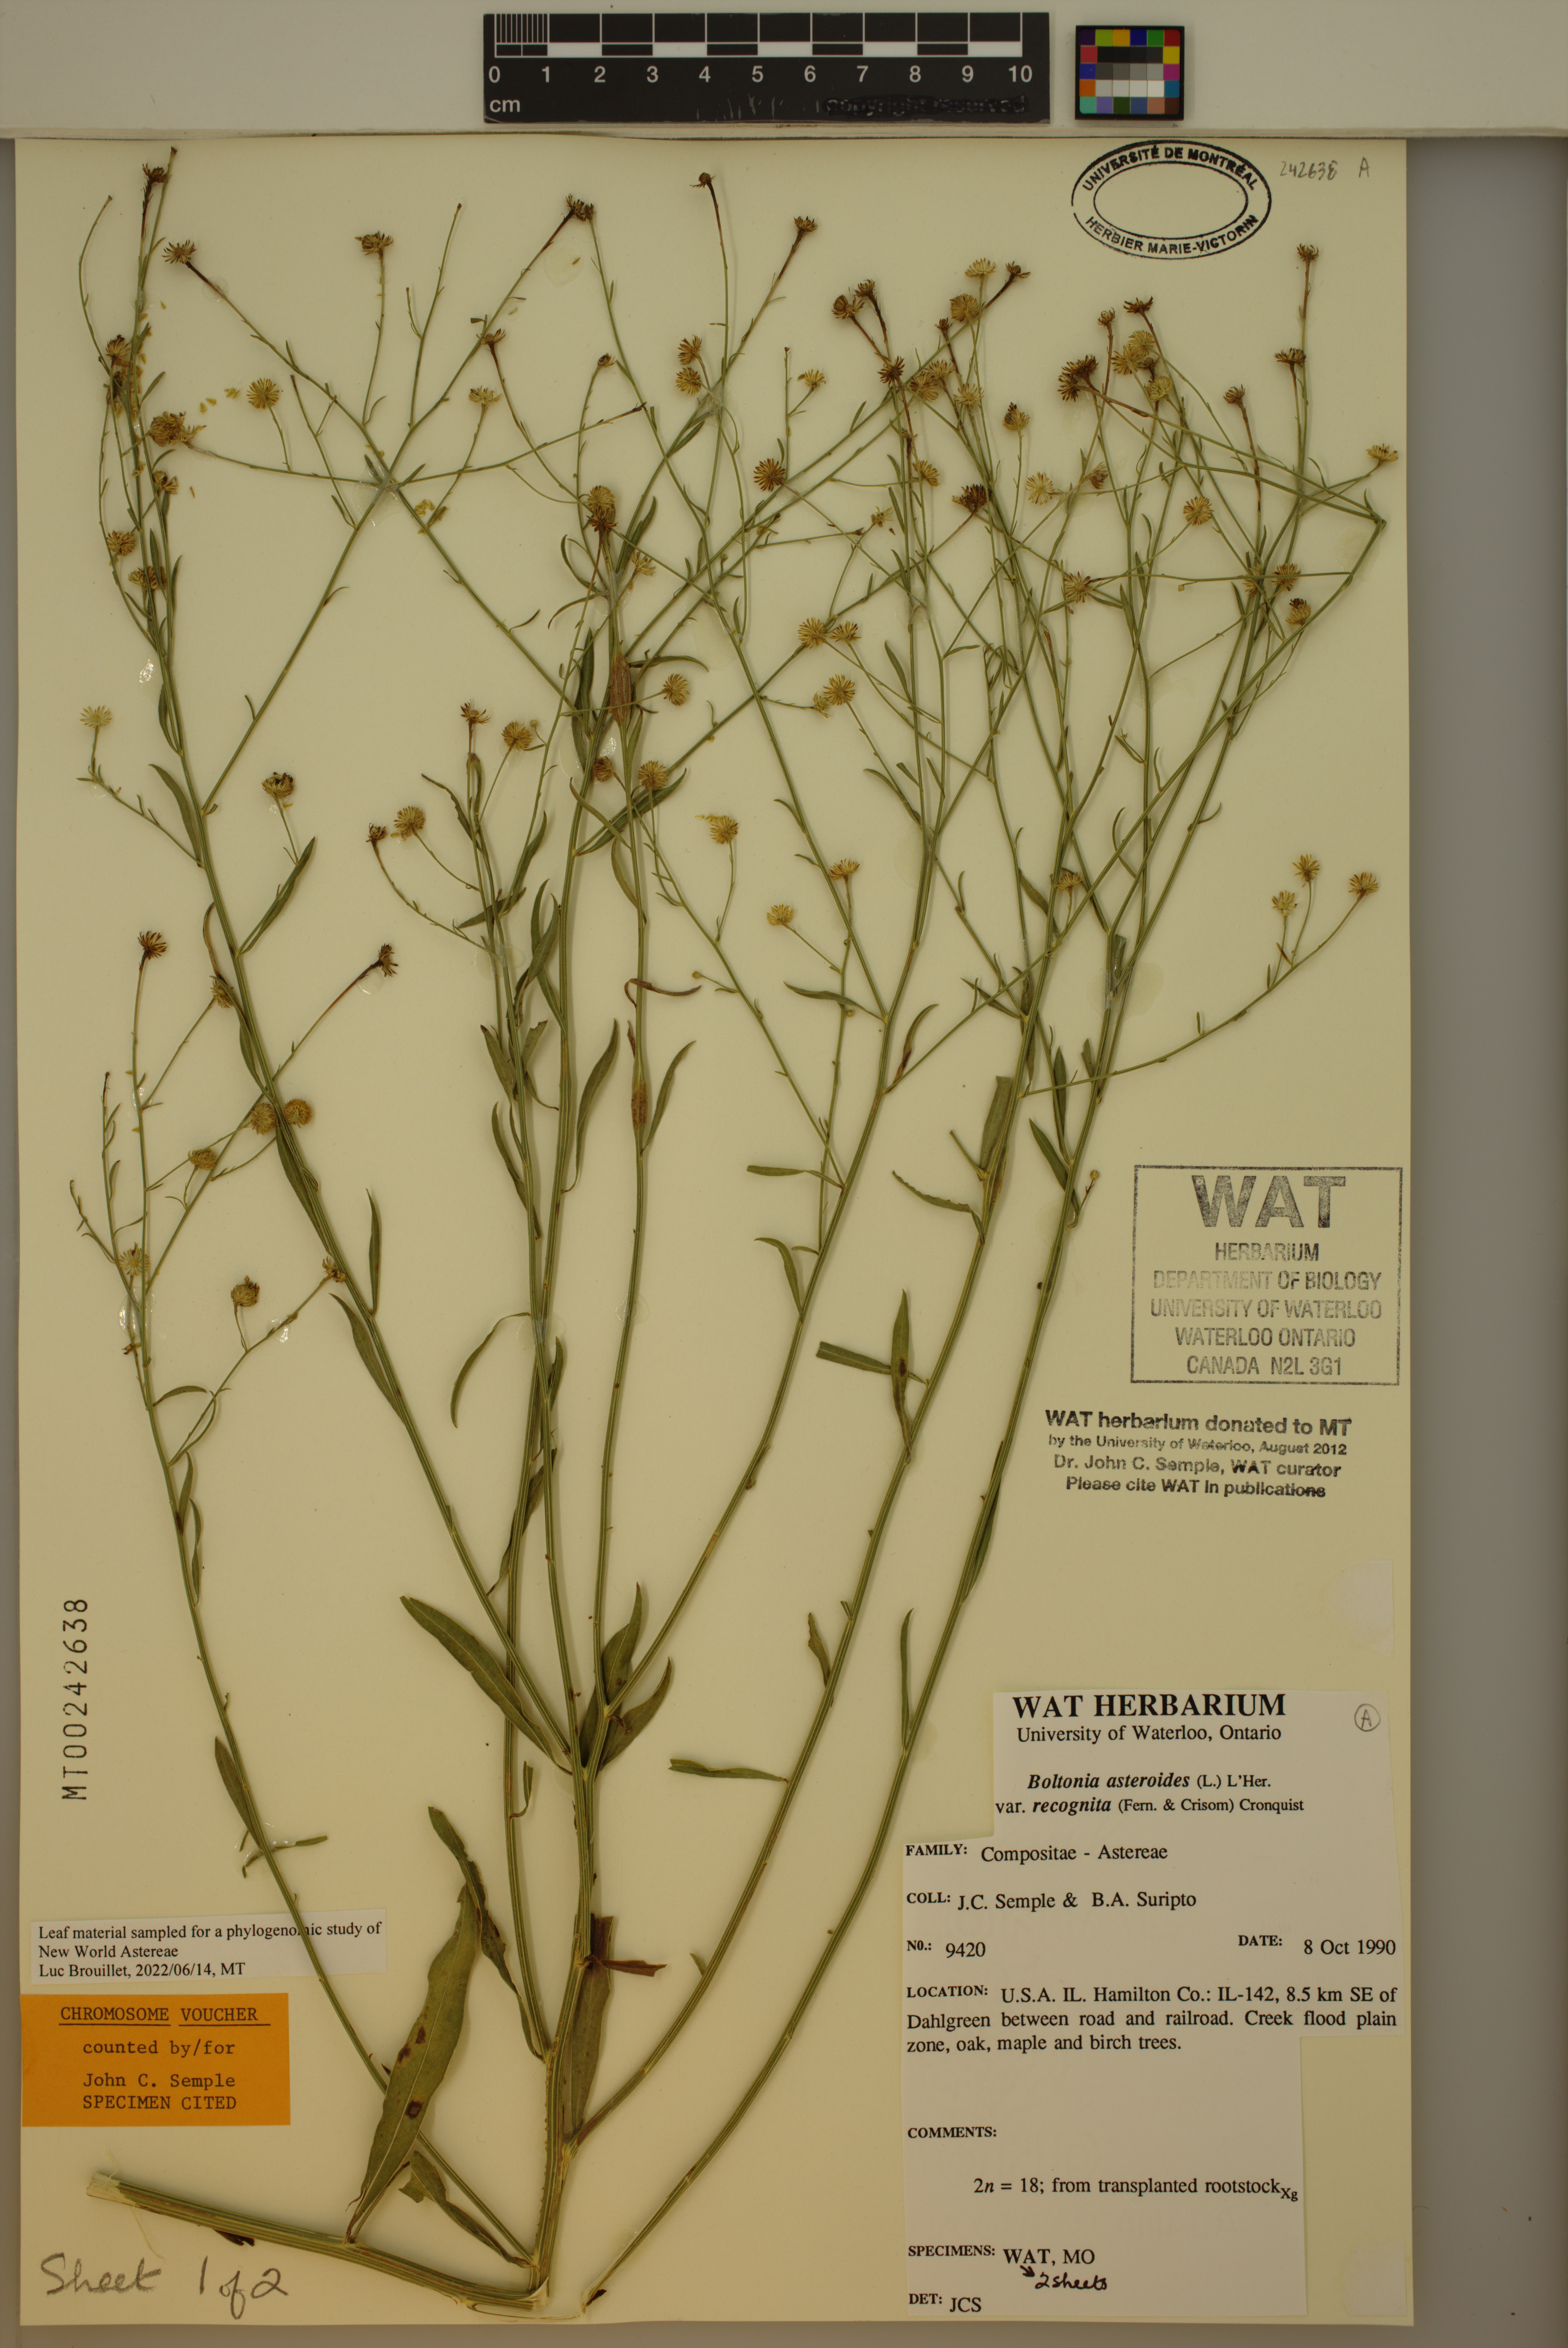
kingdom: Plantae
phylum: Tracheophyta
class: Magnoliopsida
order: Asterales
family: Asteraceae
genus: Boltonia
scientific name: Boltonia asteroides
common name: False chamomile
